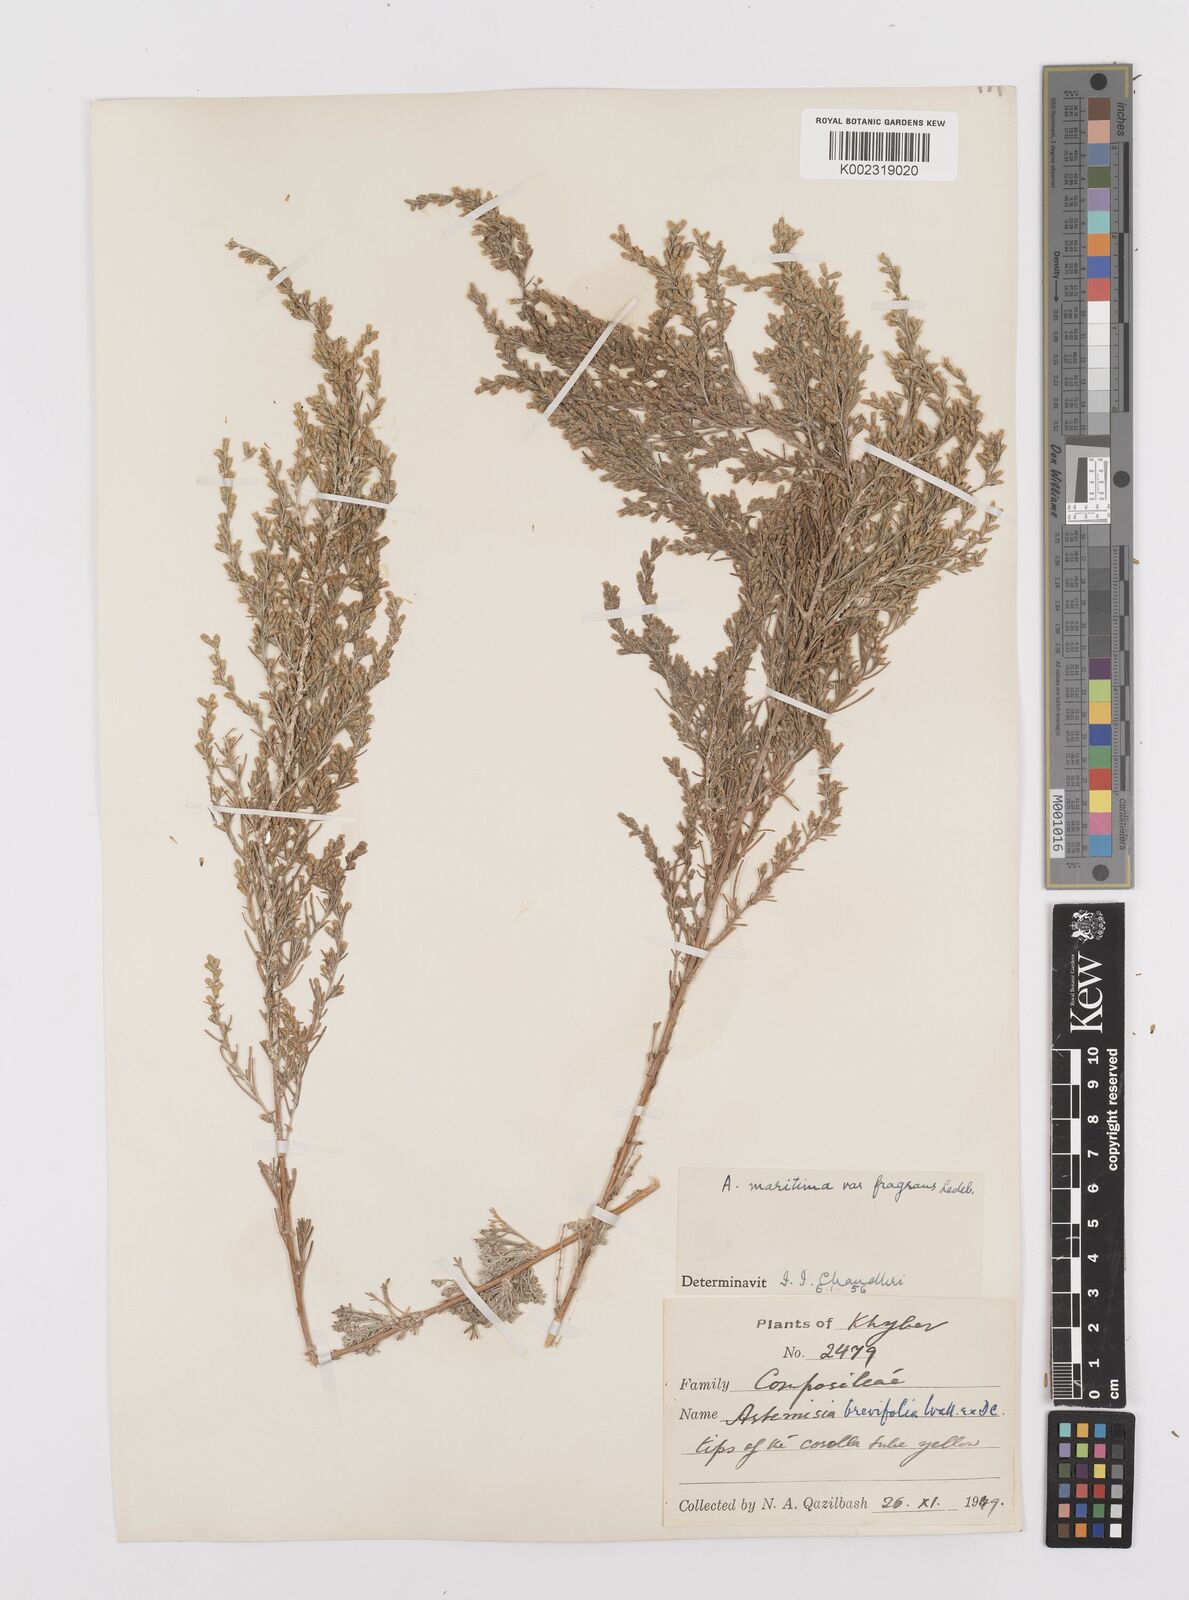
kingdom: Plantae
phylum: Tracheophyta
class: Magnoliopsida
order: Asterales
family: Asteraceae
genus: Artemisia
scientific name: Artemisia kurramensis
